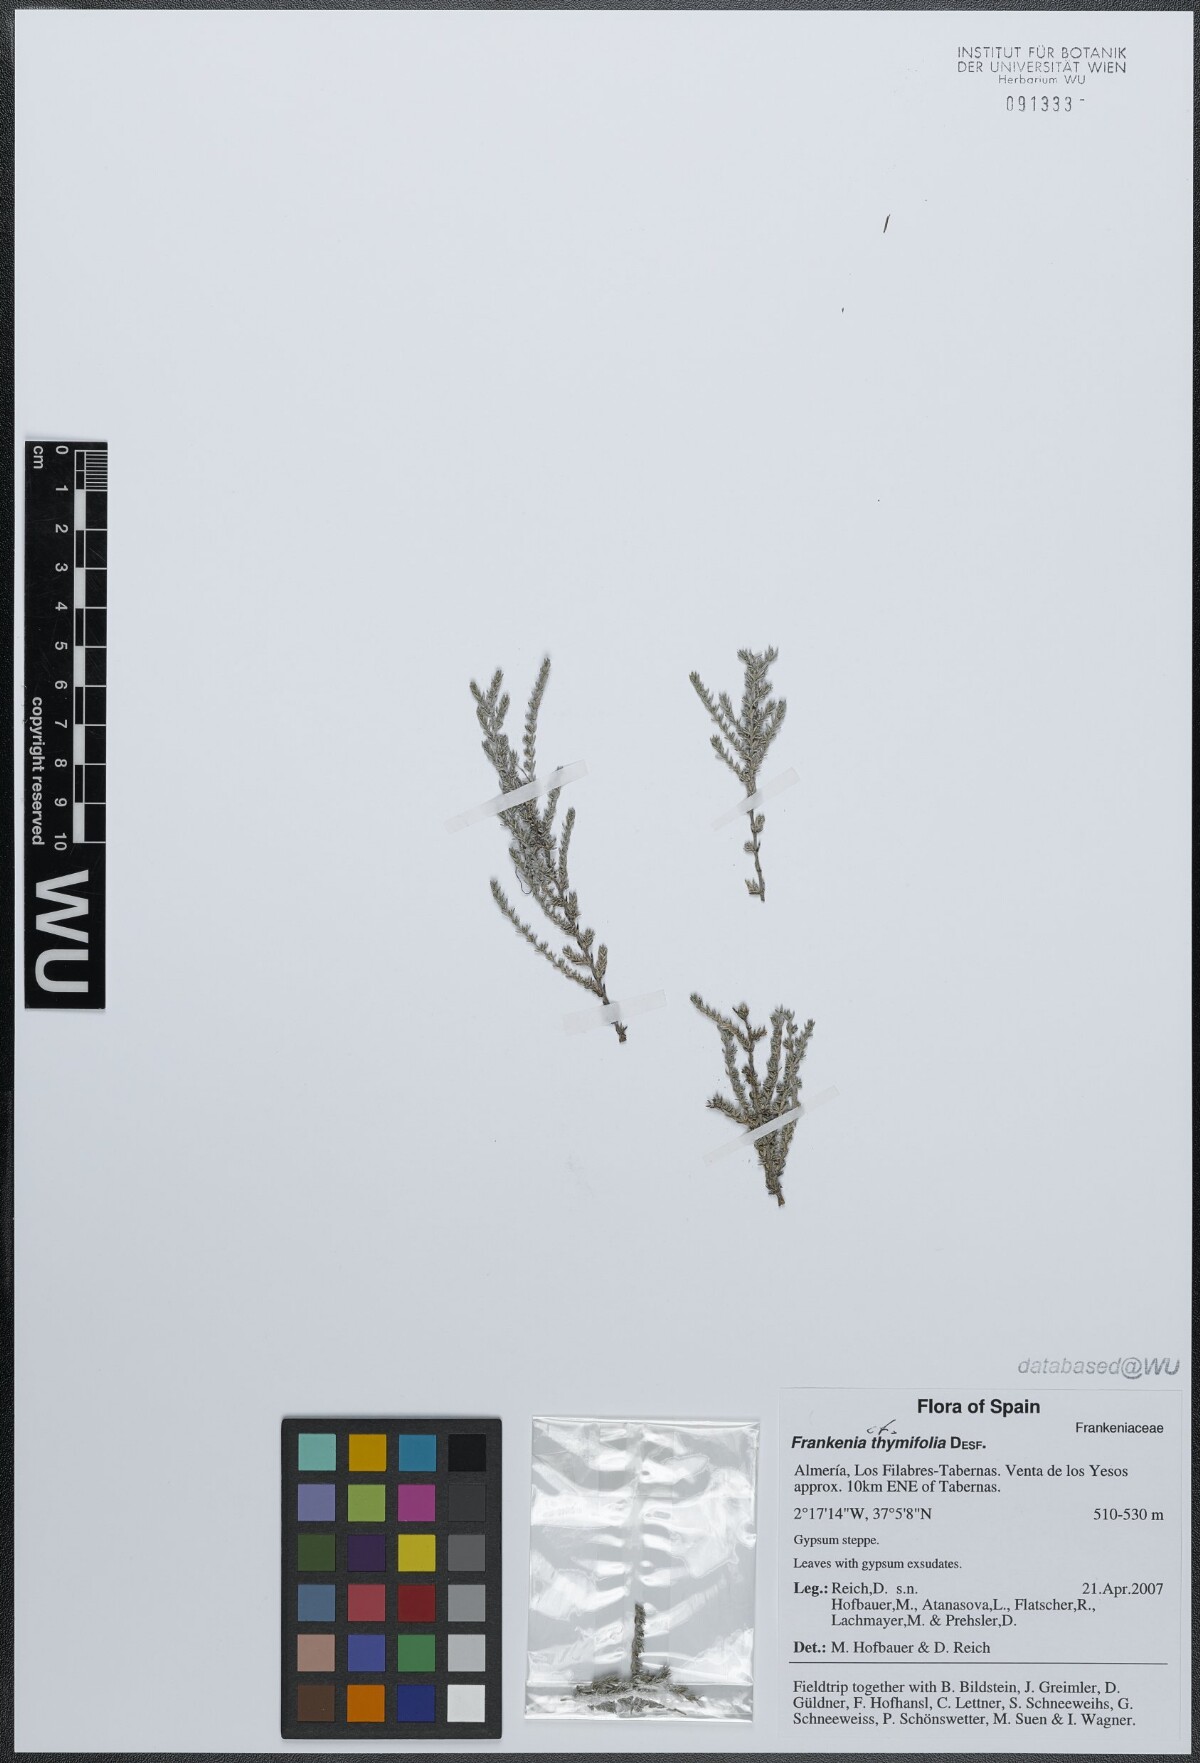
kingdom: Plantae
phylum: Tracheophyta
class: Magnoliopsida
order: Caryophyllales
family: Frankeniaceae
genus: Frankenia
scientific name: Frankenia thymifolia
